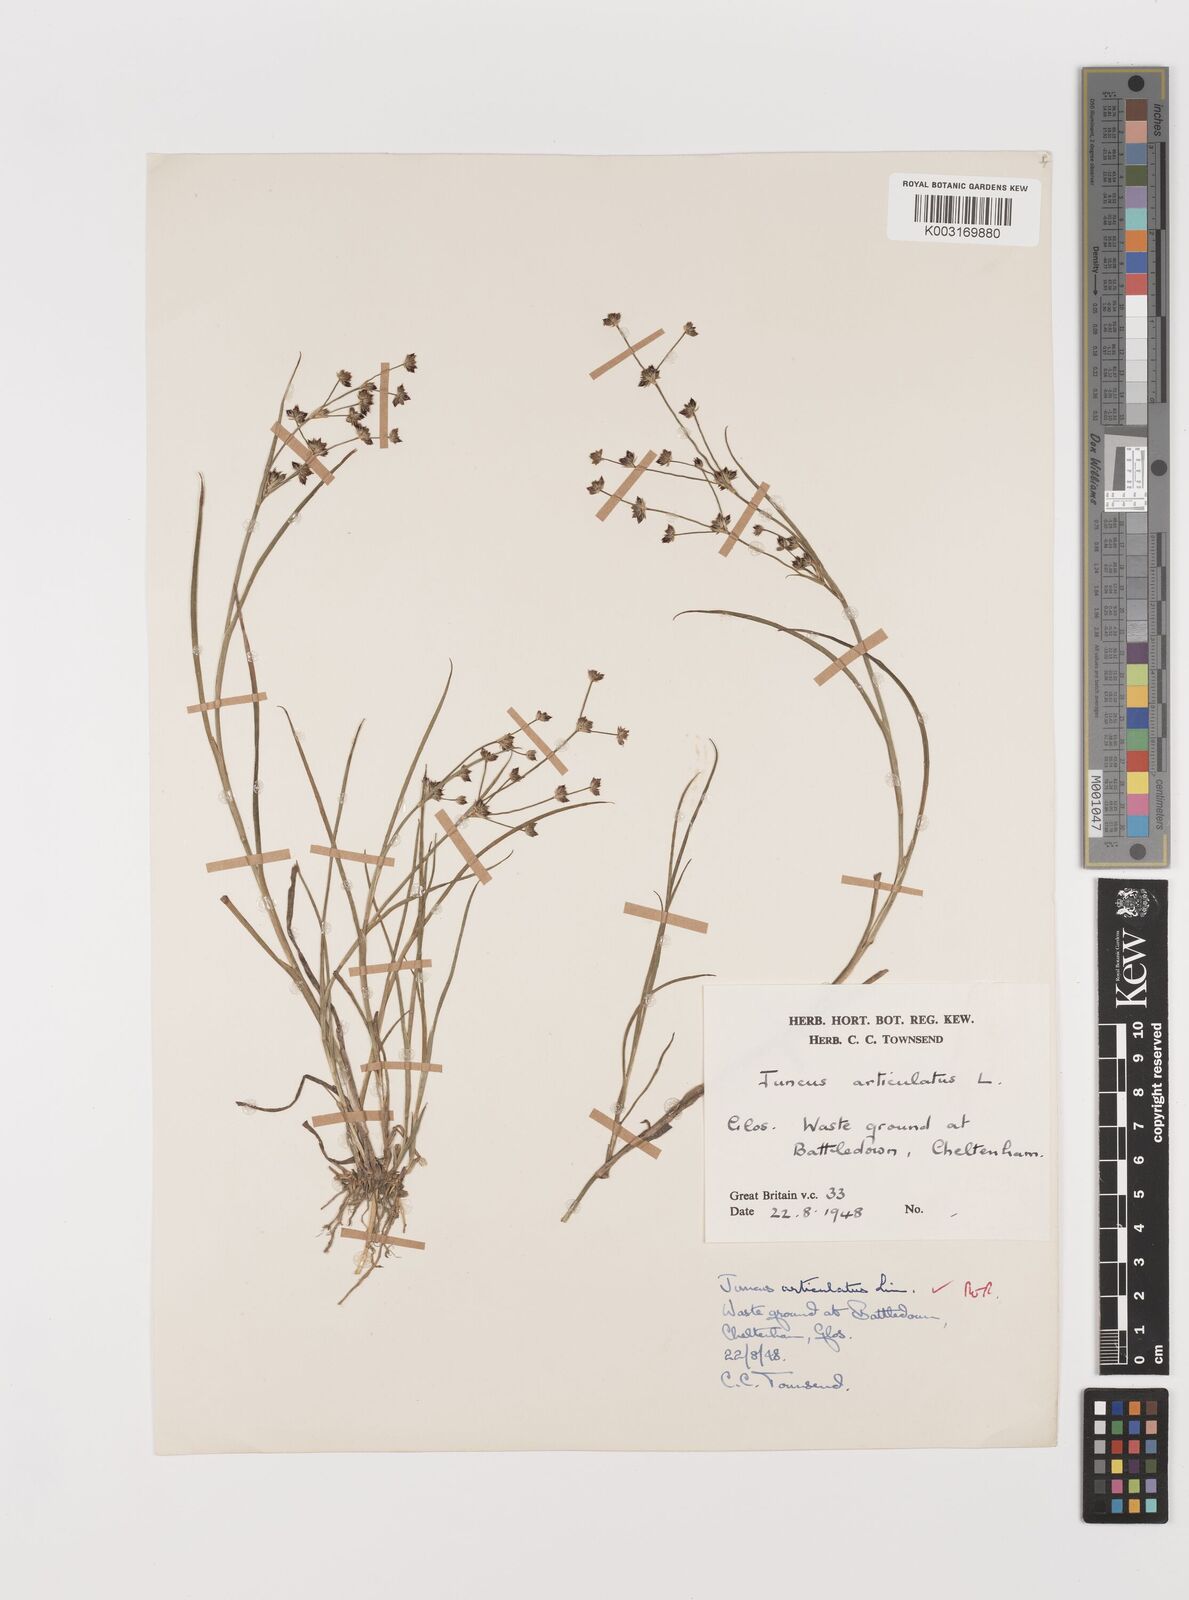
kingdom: Plantae
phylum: Tracheophyta
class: Liliopsida
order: Poales
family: Juncaceae
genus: Juncus
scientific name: Juncus articulatus
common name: Jointed rush
